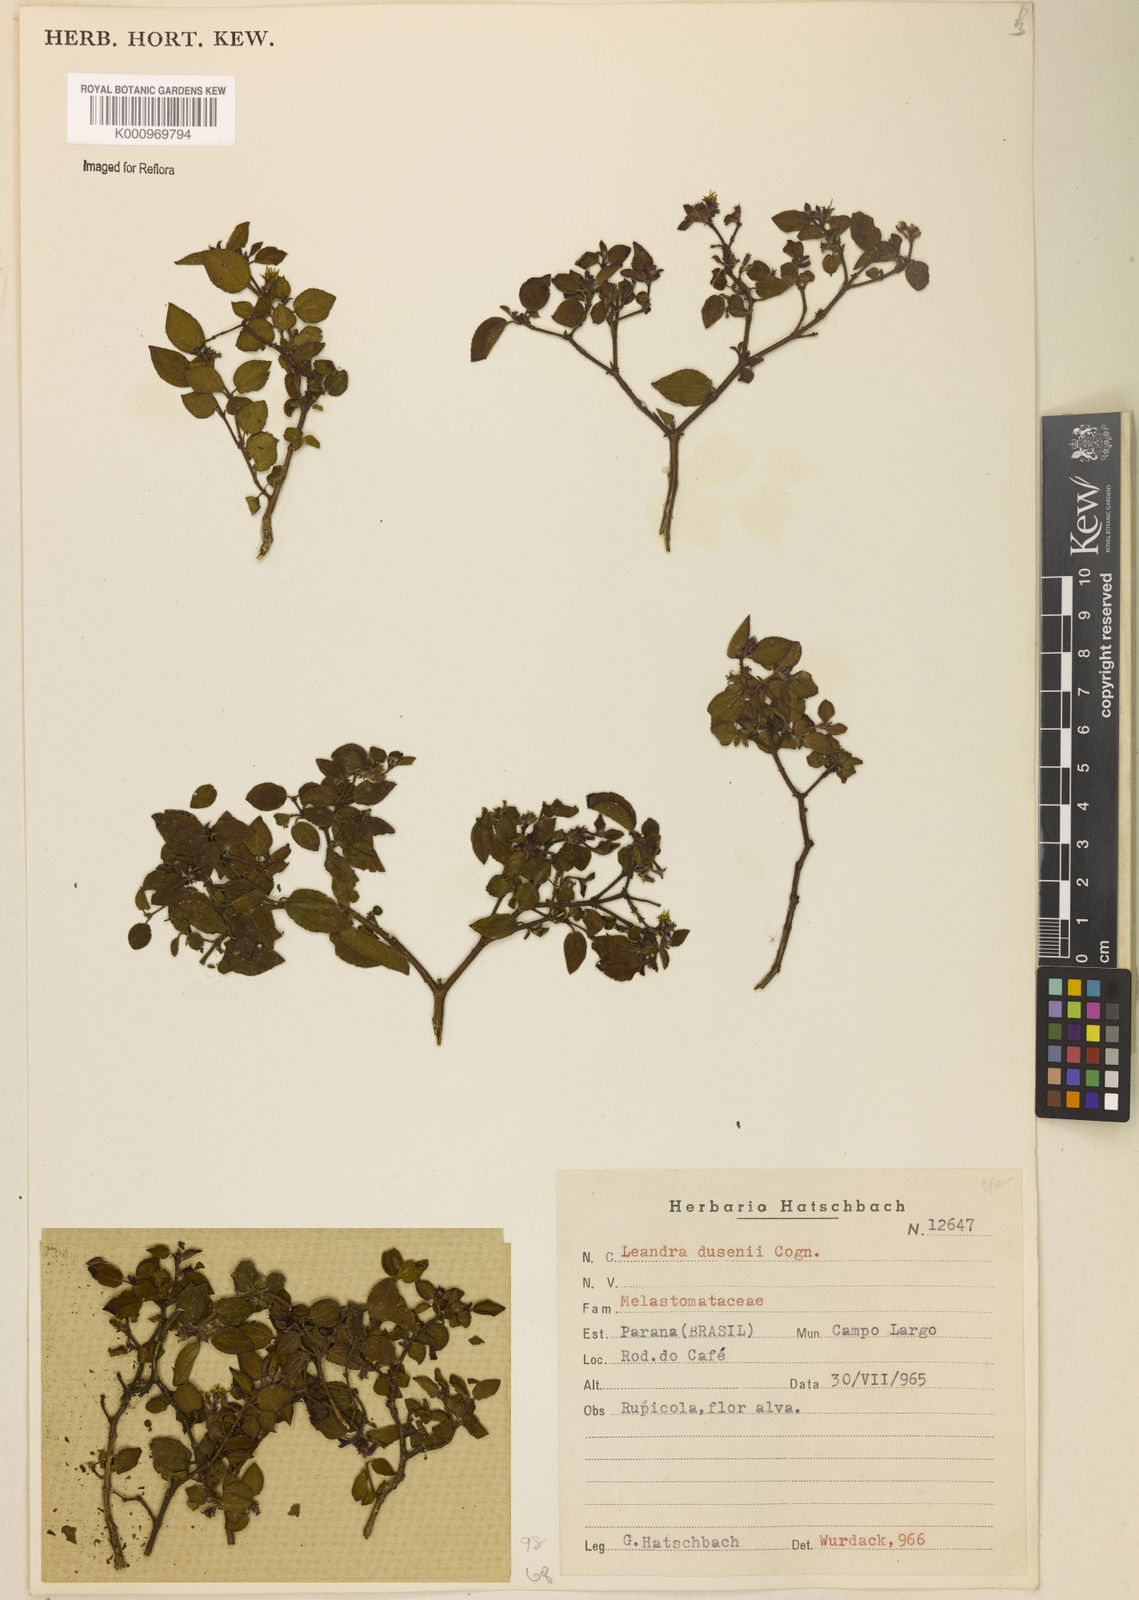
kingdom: Plantae
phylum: Tracheophyta
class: Magnoliopsida
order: Myrtales
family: Melastomataceae
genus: Miconia
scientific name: Miconia acutiflora
